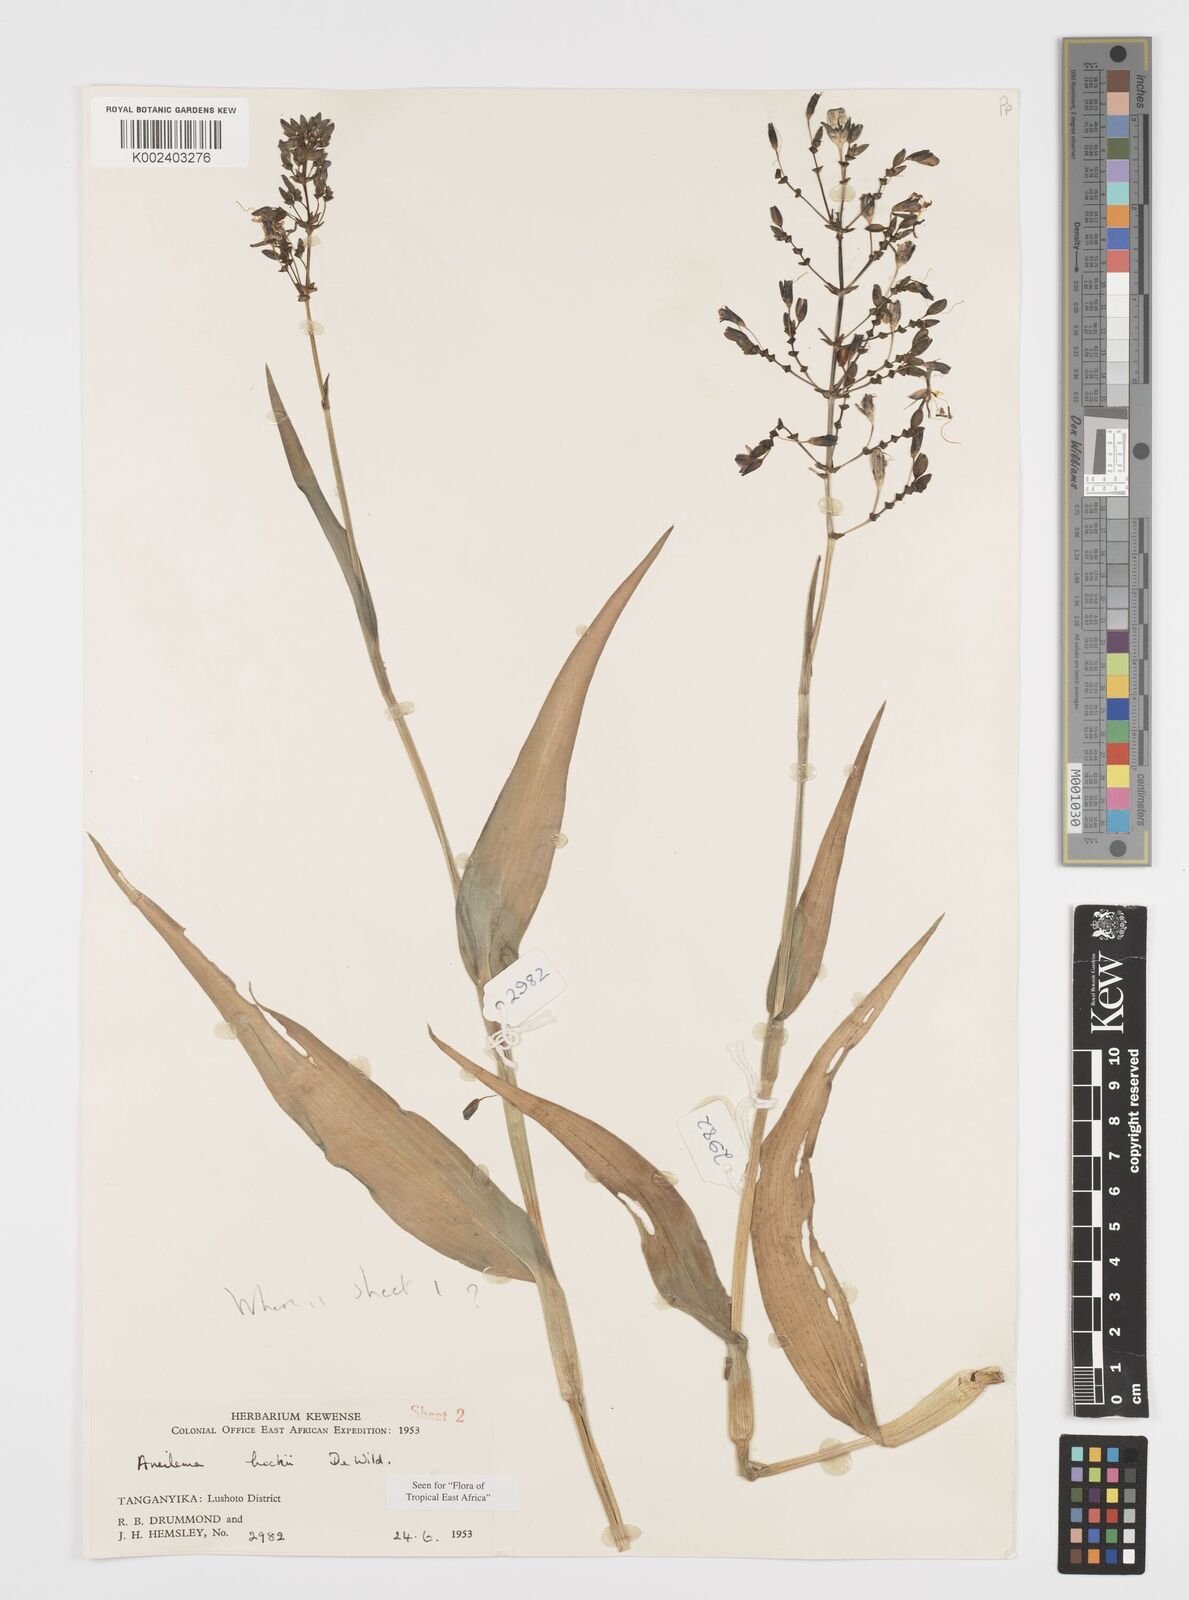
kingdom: Plantae
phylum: Tracheophyta
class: Liliopsida
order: Commelinales
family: Commelinaceae
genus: Aneilema
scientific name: Aneilema hockii
